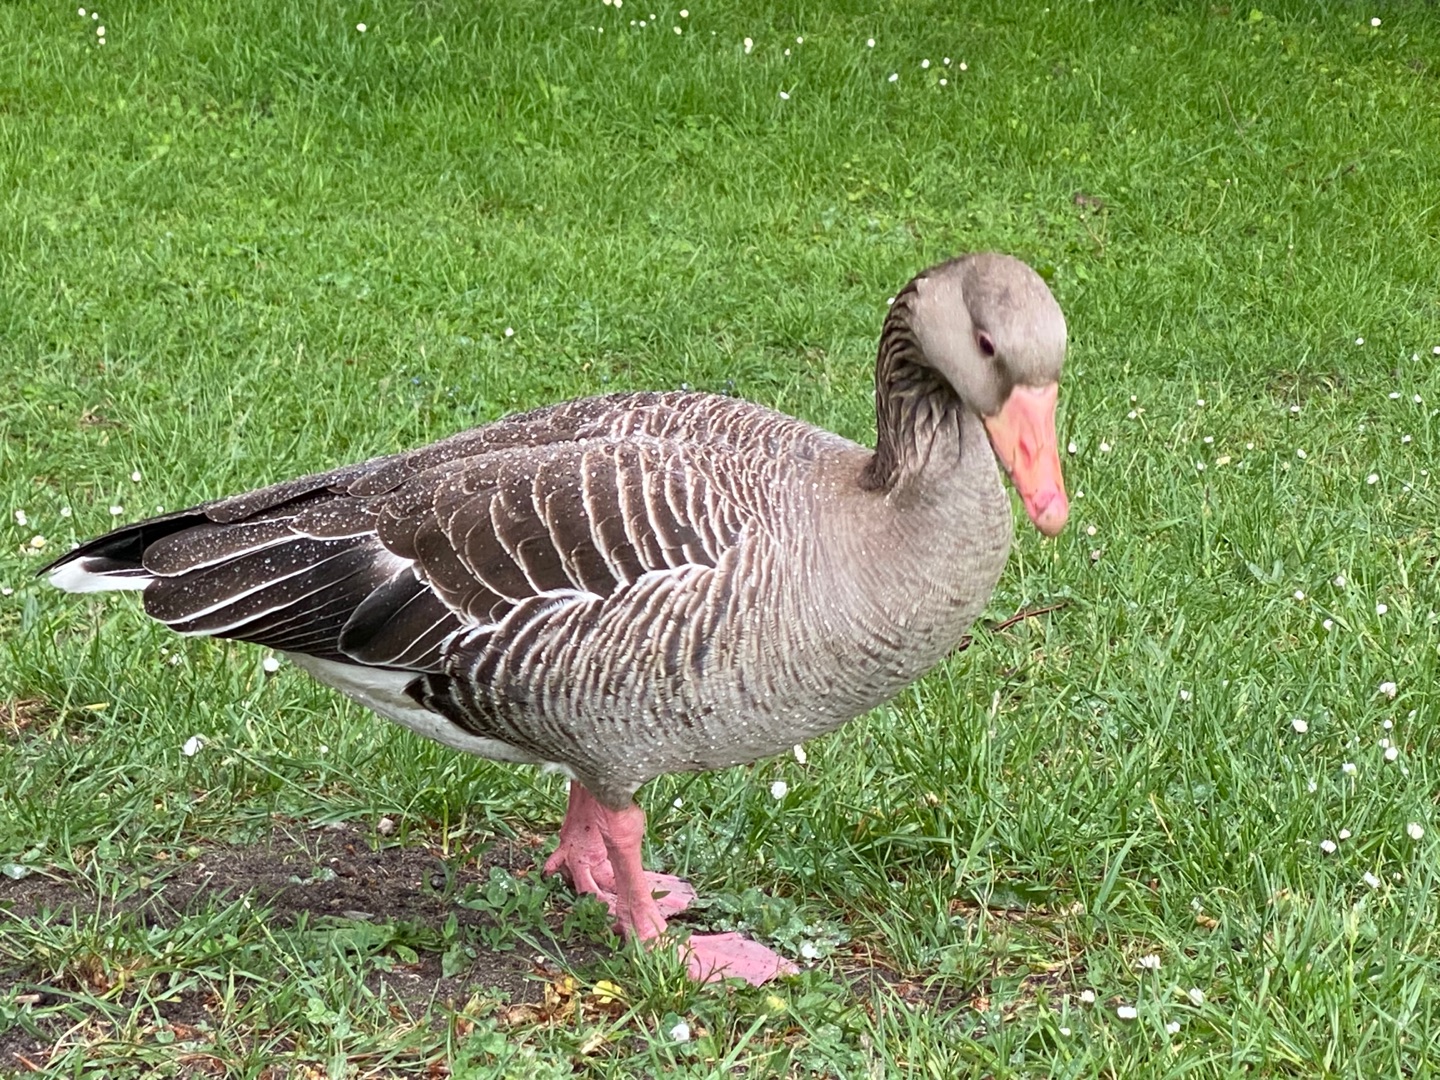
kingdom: Animalia
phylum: Chordata
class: Aves
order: Anseriformes
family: Anatidae
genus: Anser
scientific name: Anser anser
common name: Grågås
